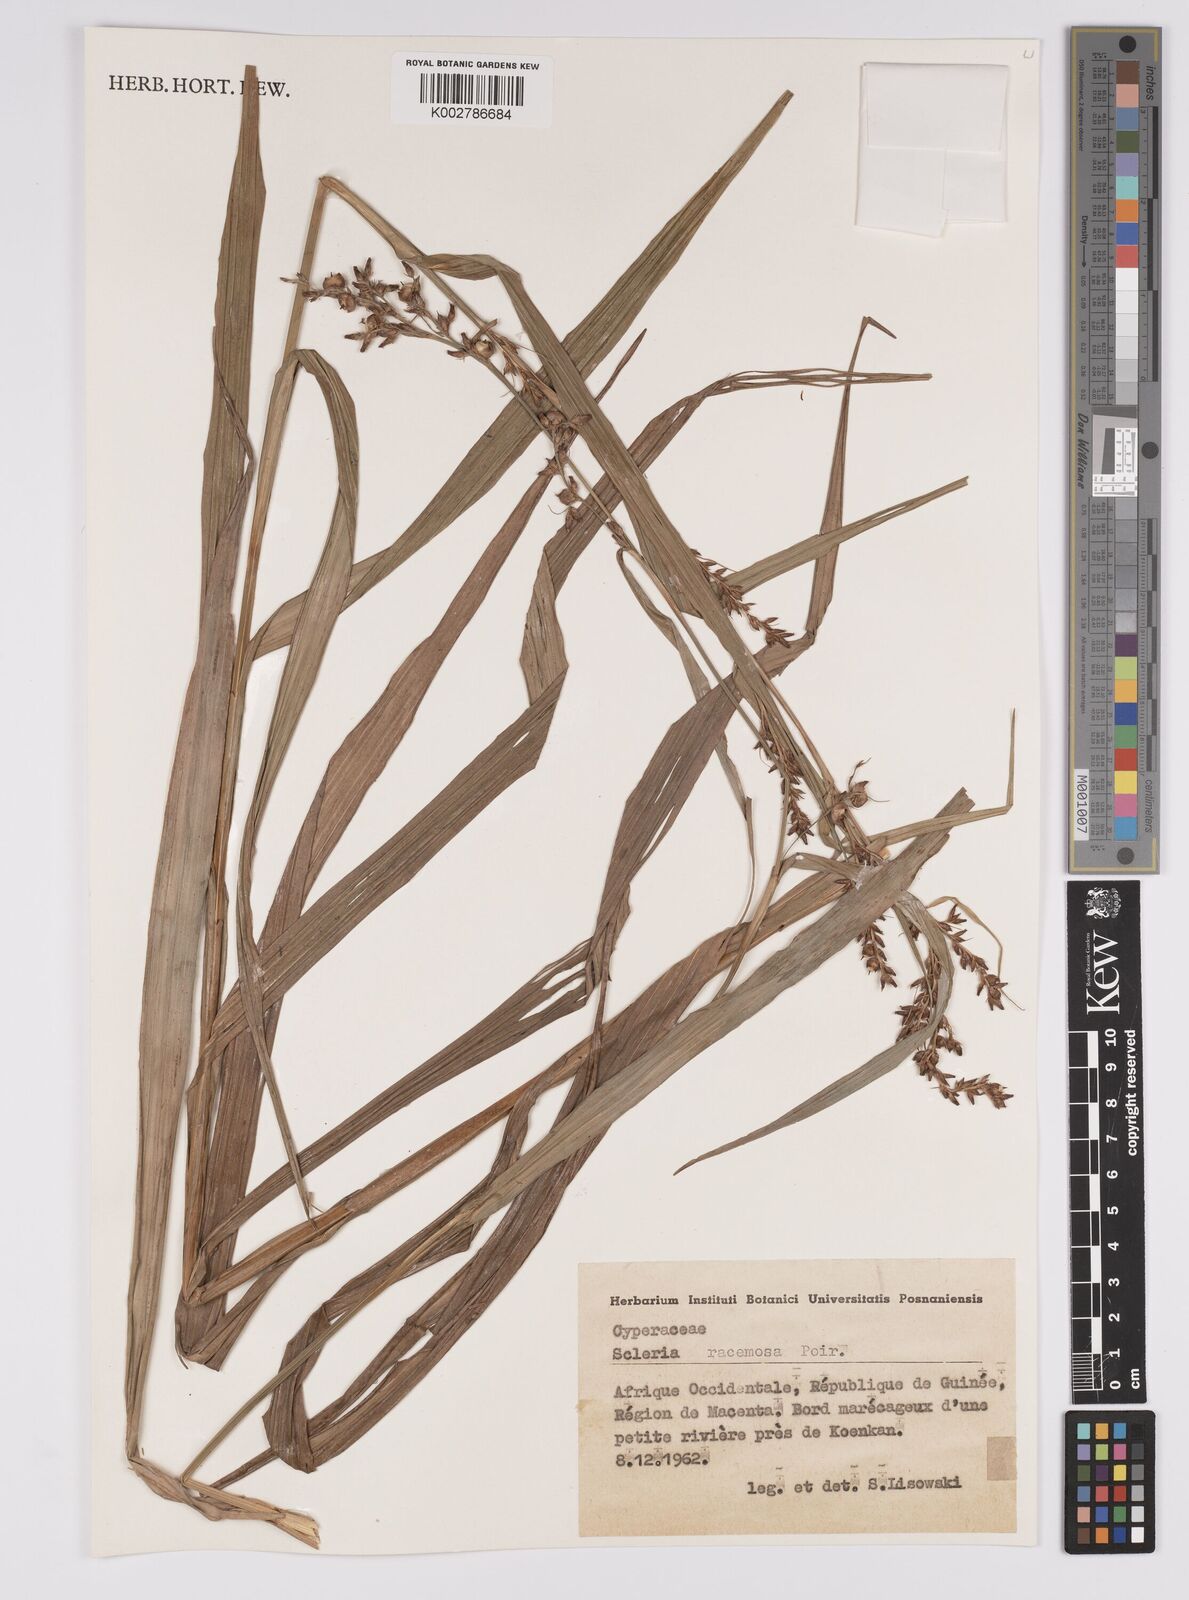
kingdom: Plantae
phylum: Tracheophyta
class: Liliopsida
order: Poales
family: Cyperaceae
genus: Scleria
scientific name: Scleria racemosa
